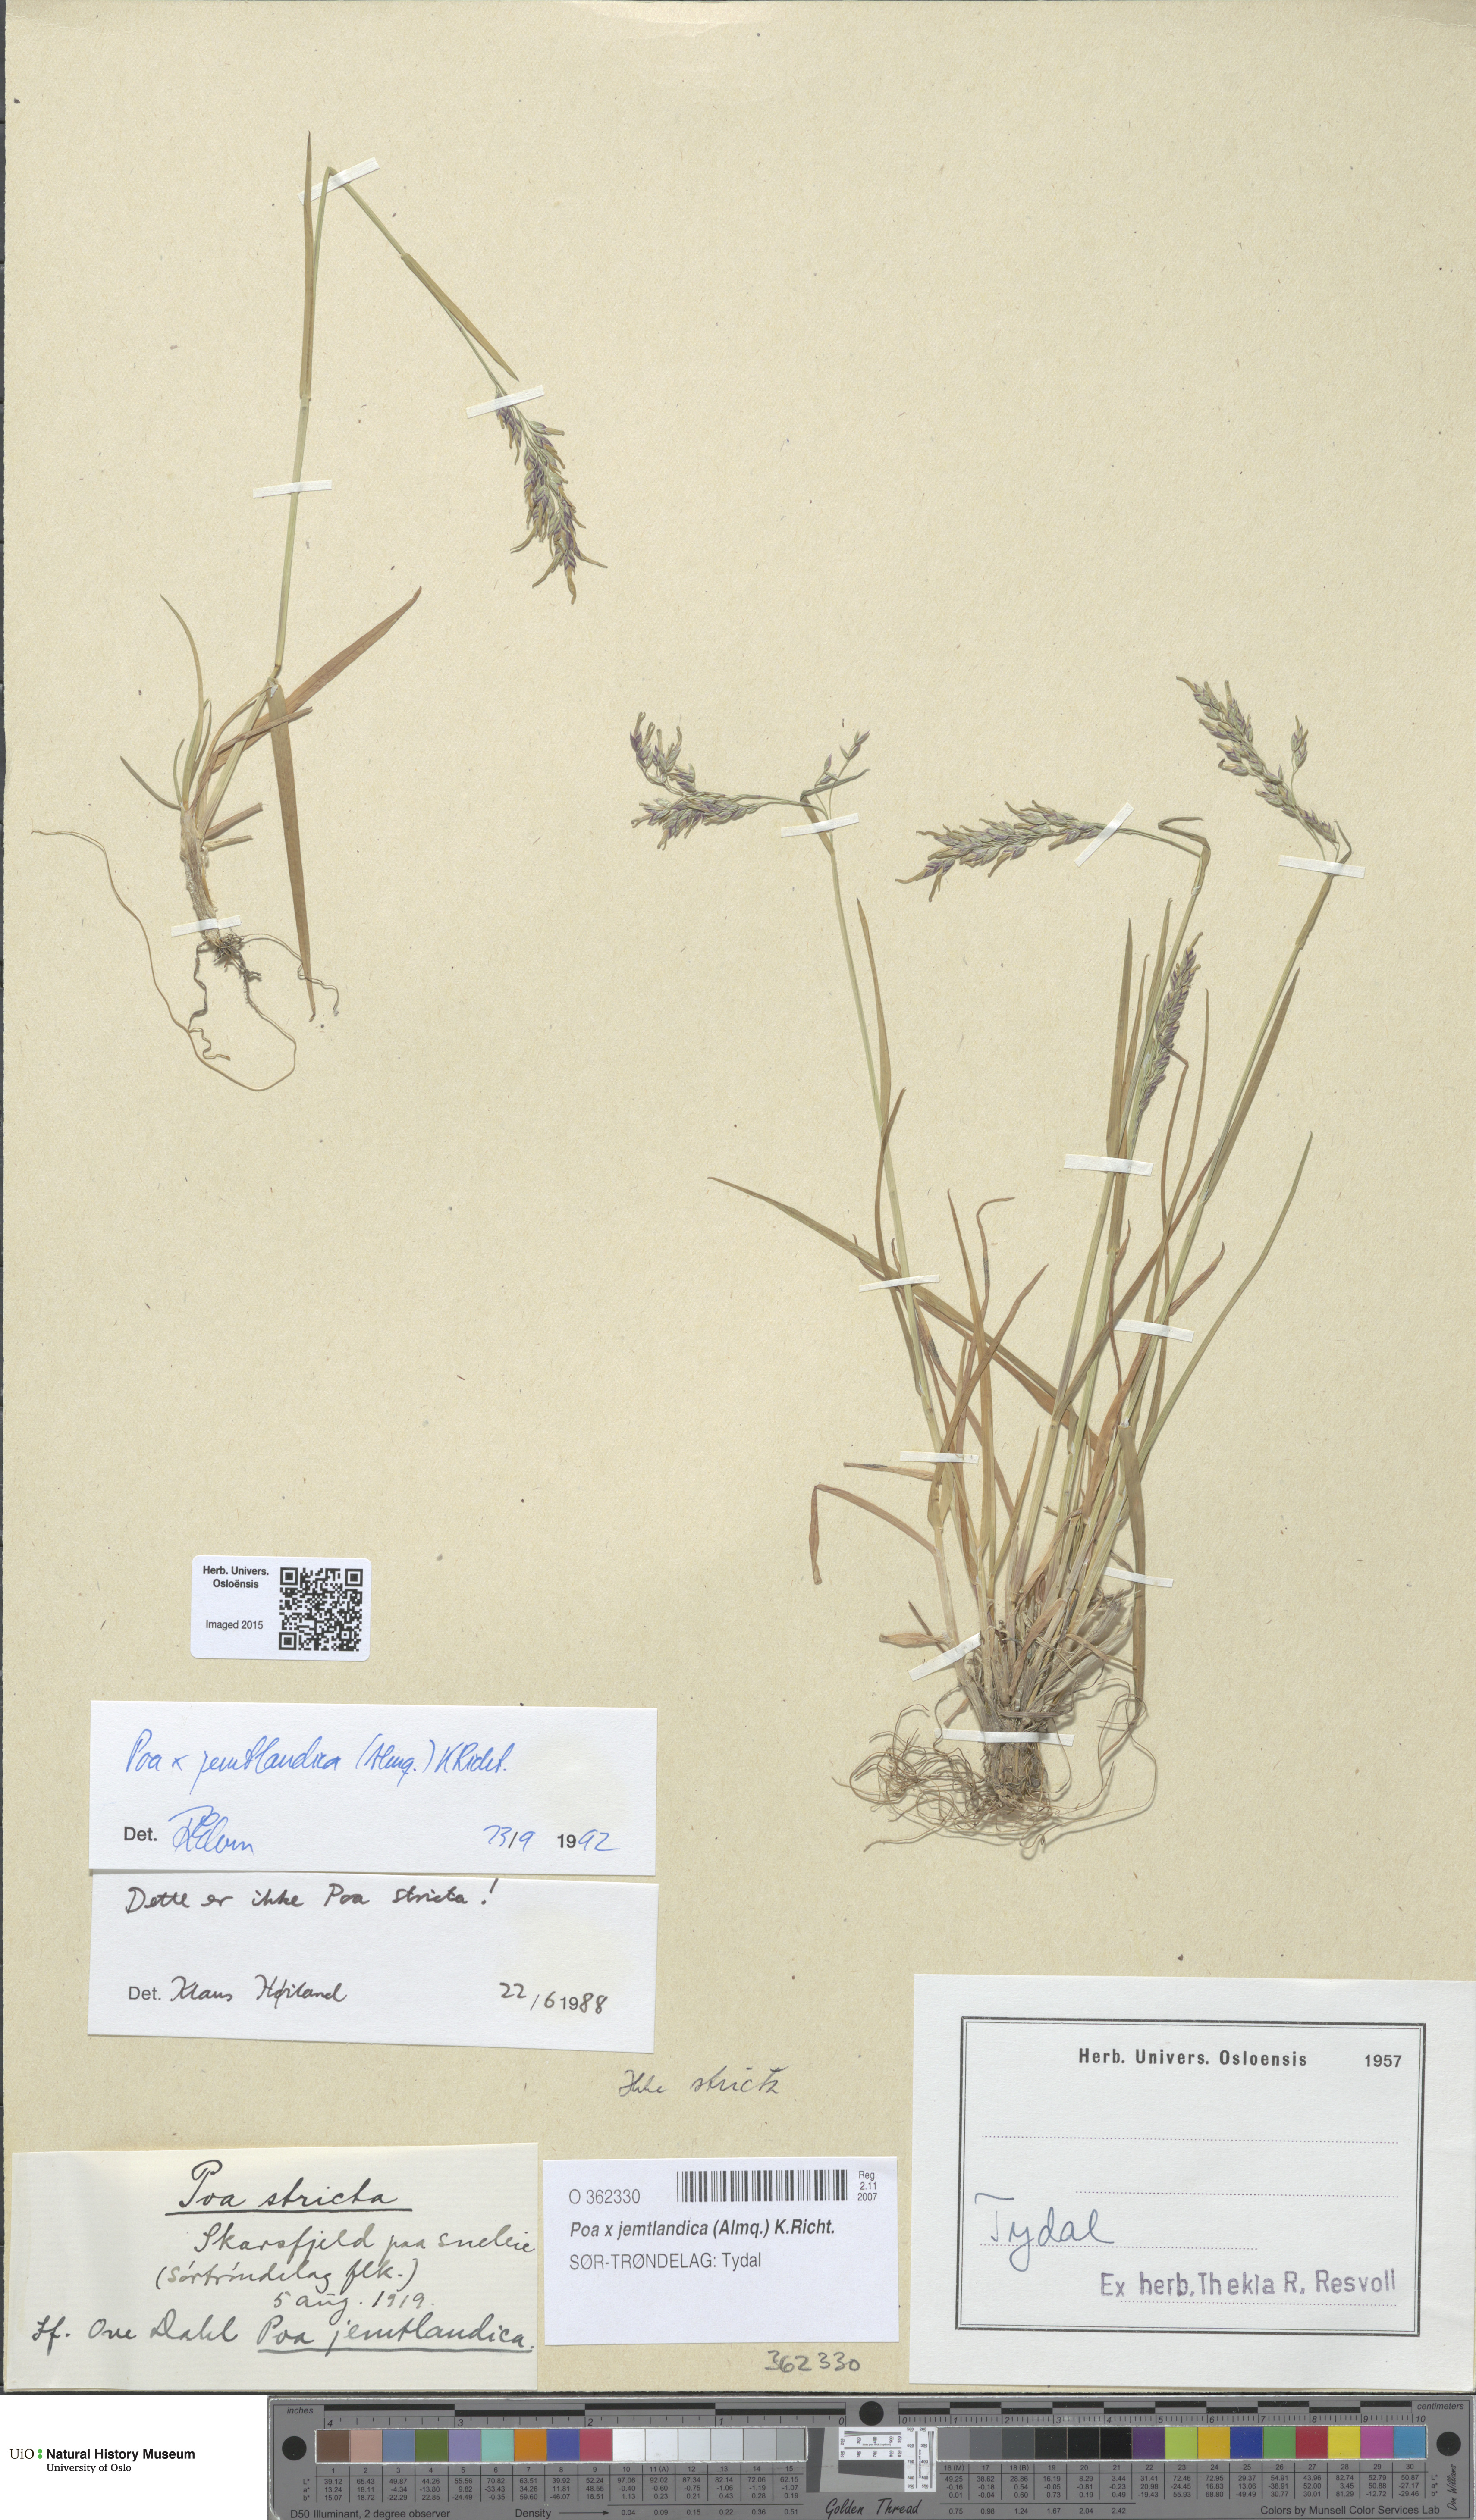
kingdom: Plantae
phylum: Tracheophyta
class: Liliopsida
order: Poales
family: Poaceae
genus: Poa
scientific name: Poa jemtlandica
